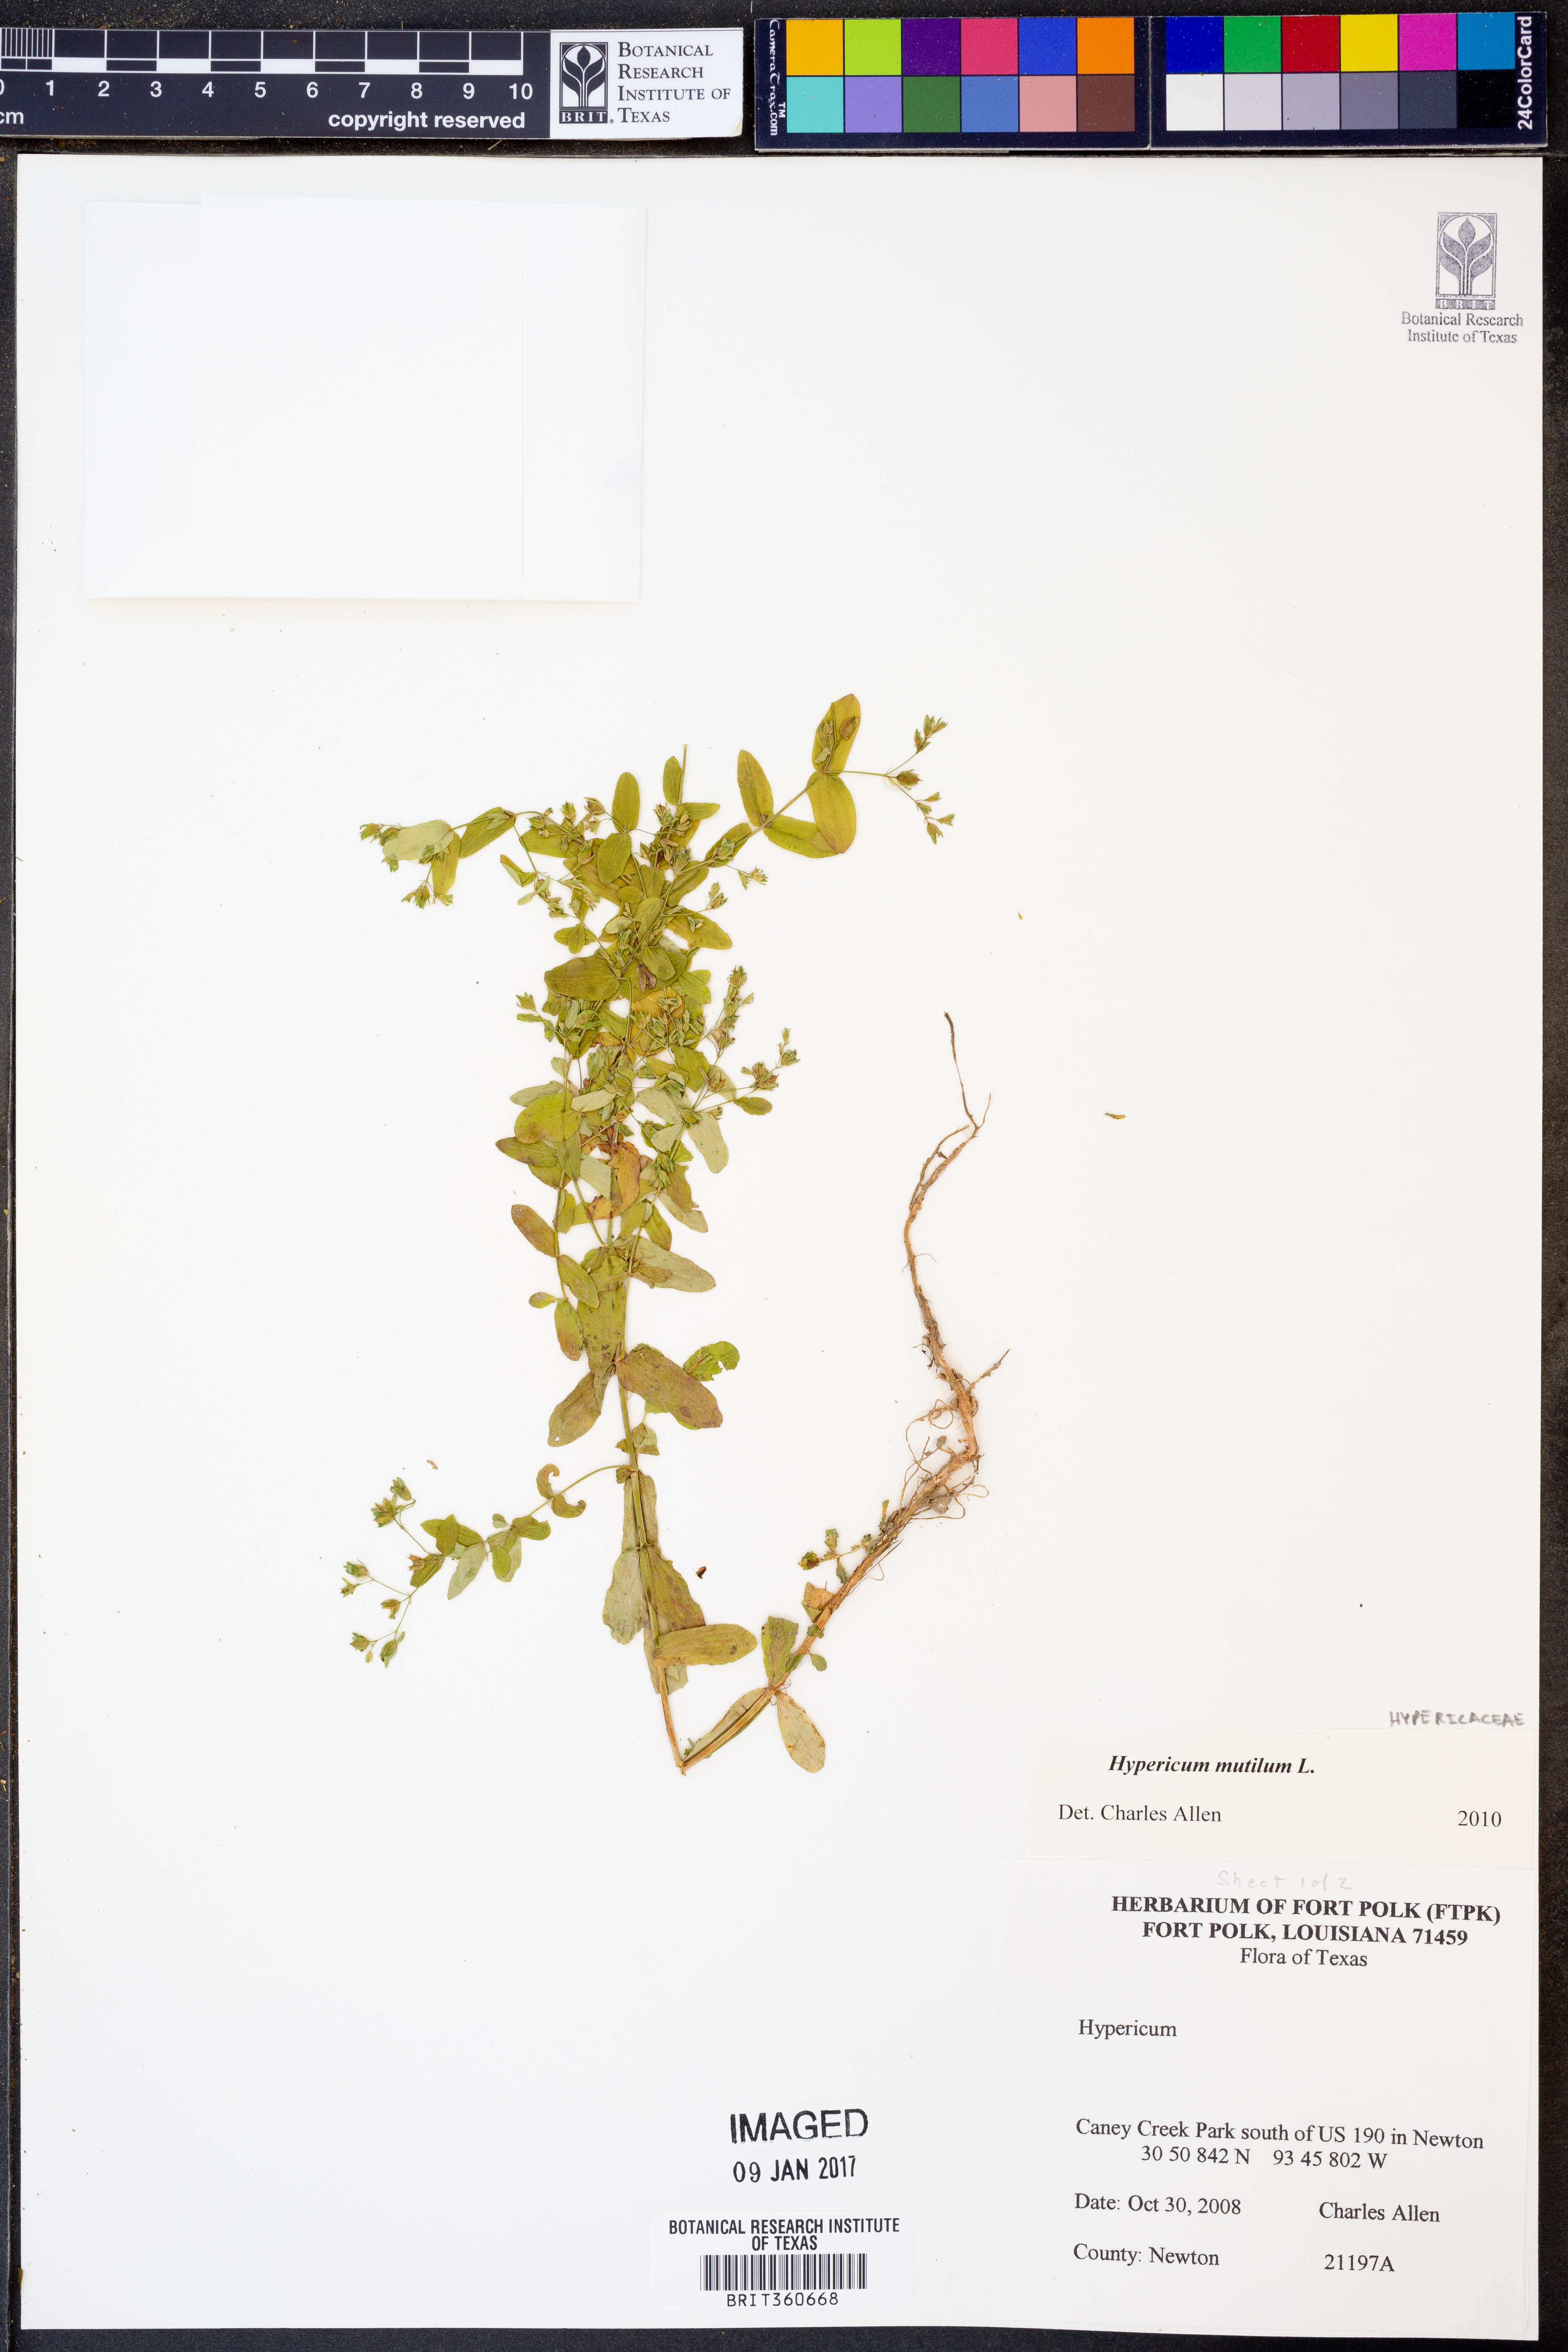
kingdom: Plantae
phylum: Tracheophyta
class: Magnoliopsida
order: Malpighiales
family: Hypericaceae
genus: Hypericum
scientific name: Hypericum mutilum
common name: Dwarf st. john's-wort
